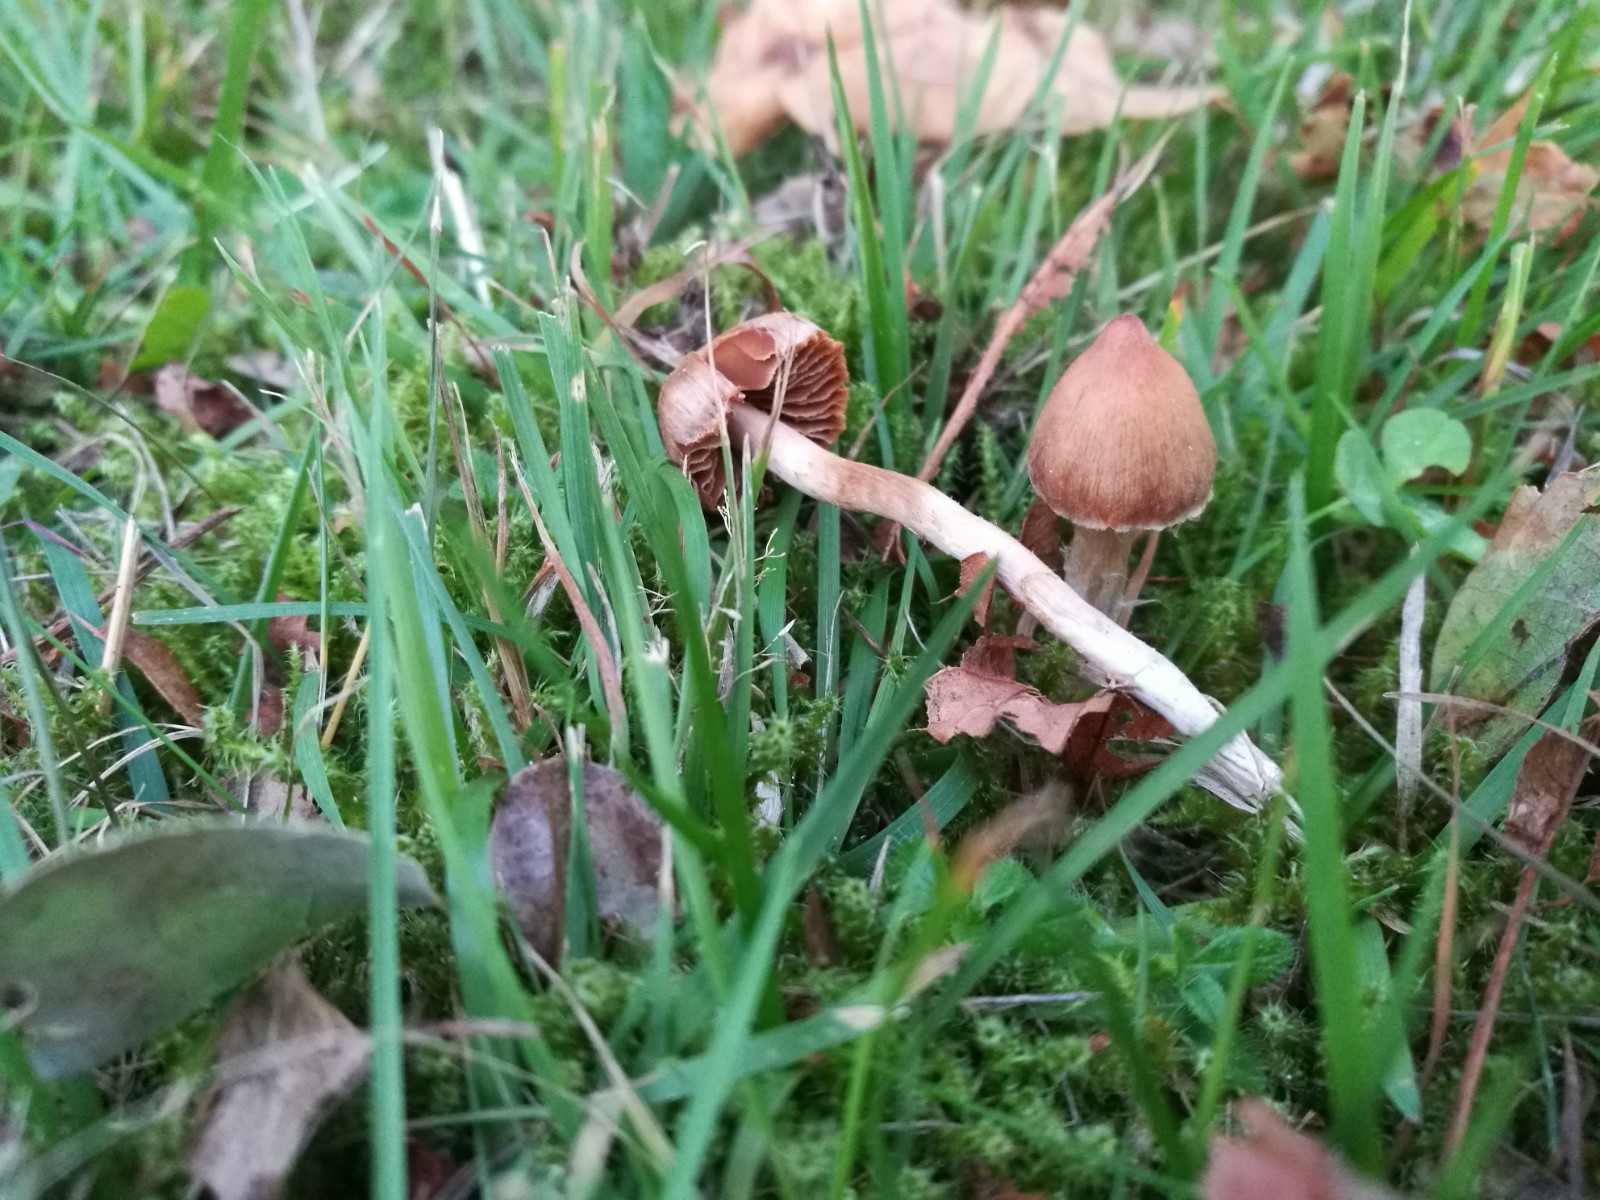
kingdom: Fungi
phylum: Basidiomycota
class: Agaricomycetes
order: Agaricales
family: Cortinariaceae
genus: Cortinarius
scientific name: Cortinarius
